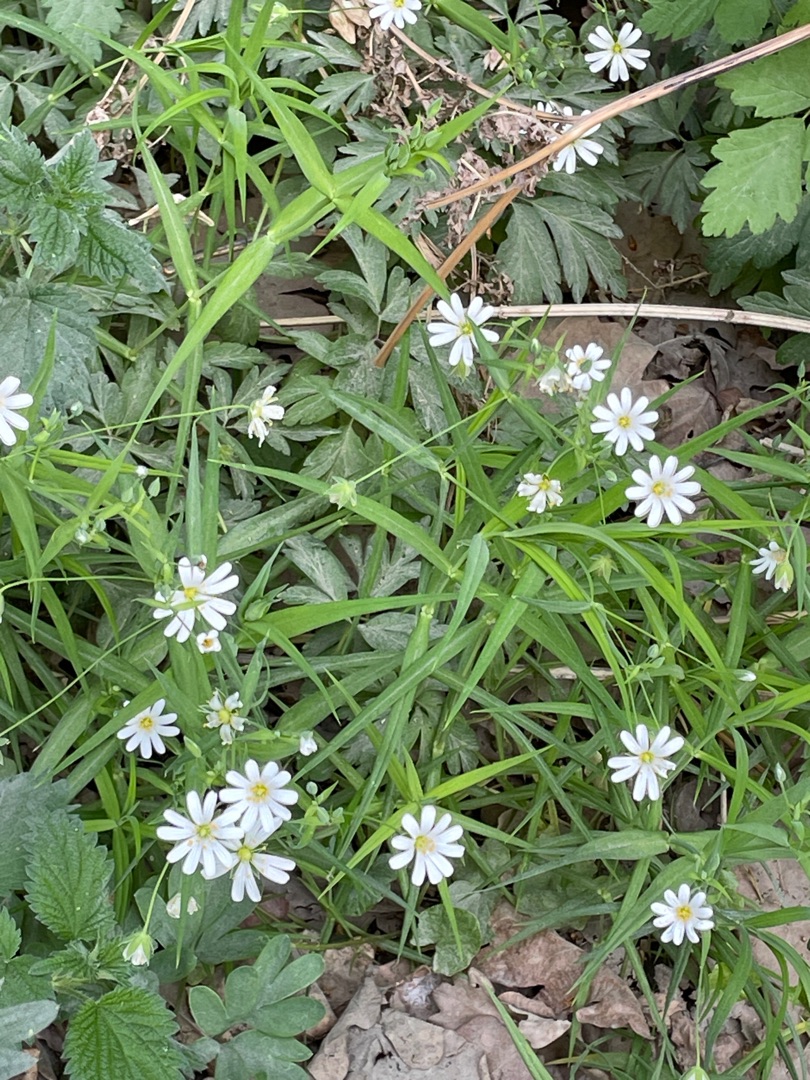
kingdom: Plantae
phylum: Tracheophyta
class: Magnoliopsida
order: Caryophyllales
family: Caryophyllaceae
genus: Rabelera
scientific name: Rabelera holostea
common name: Stor fladstjerne
